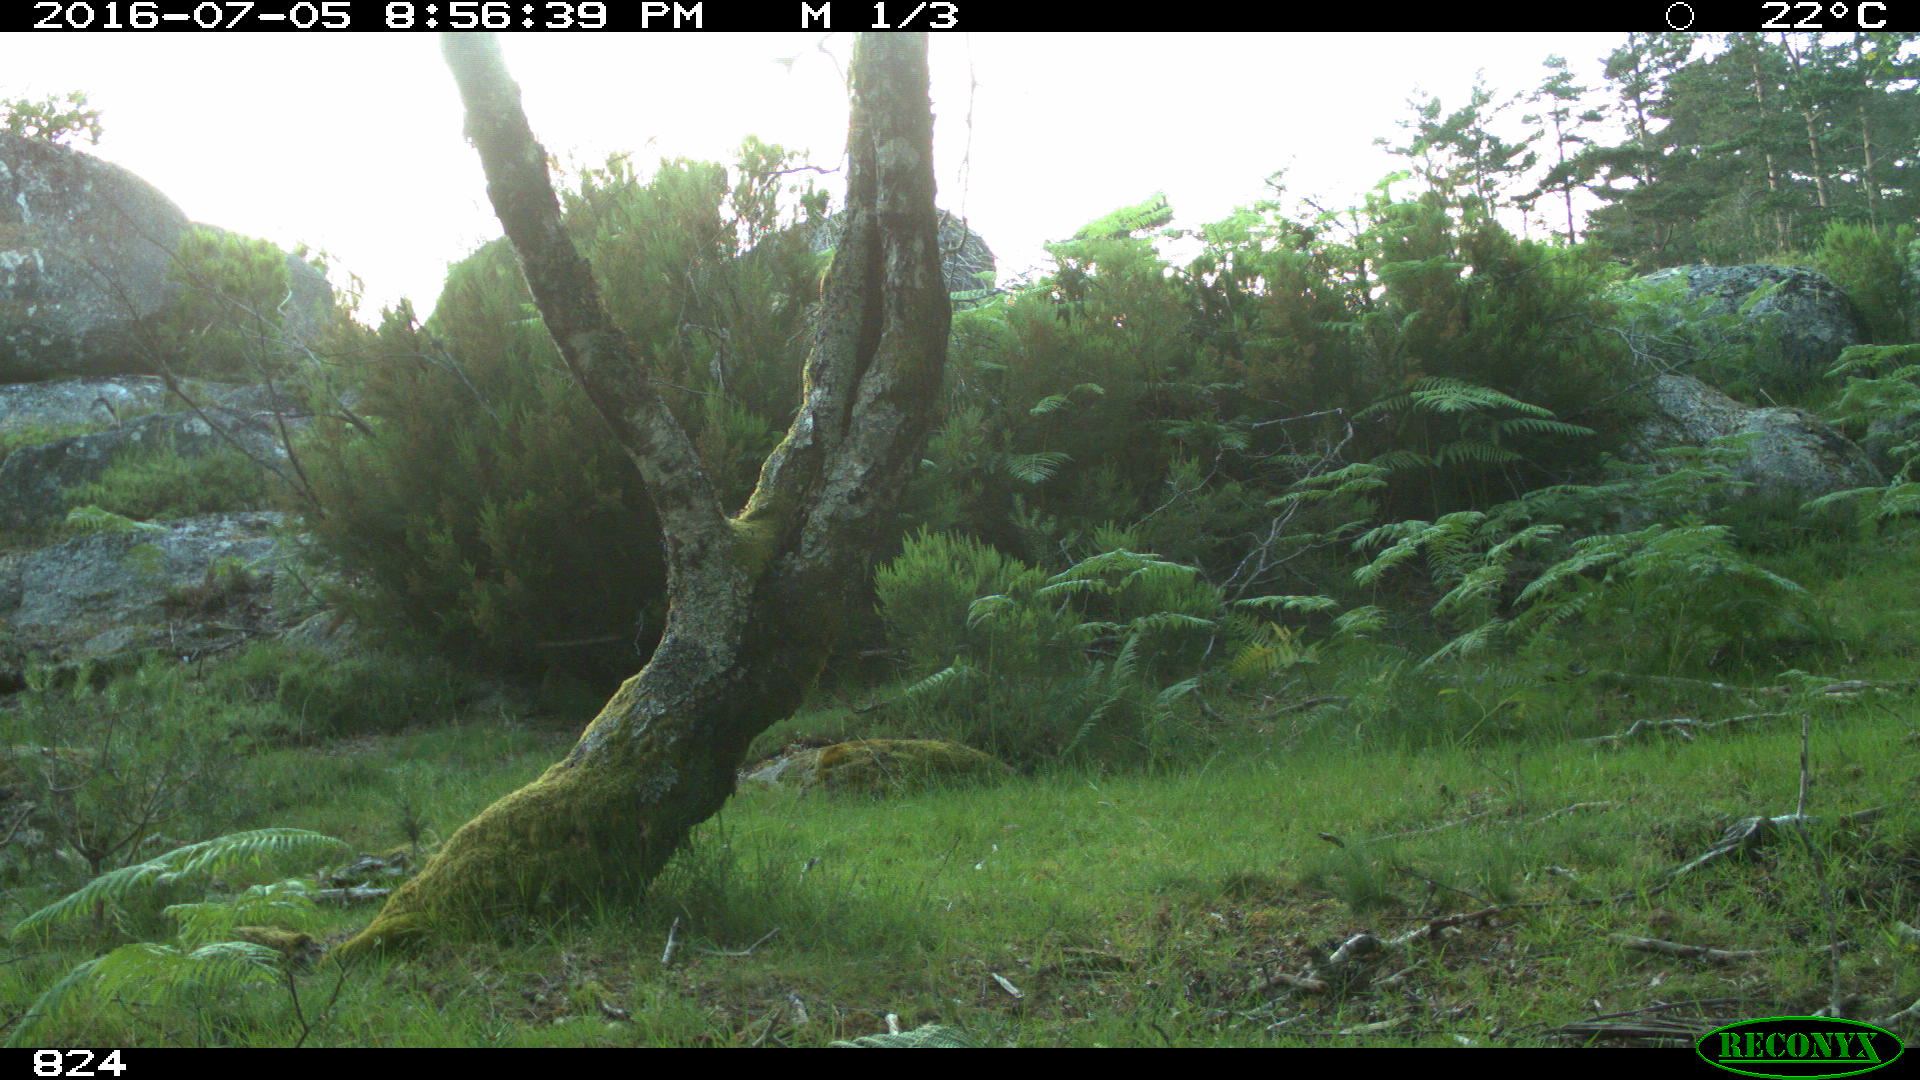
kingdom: Animalia
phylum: Chordata
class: Mammalia
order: Artiodactyla
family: Bovidae
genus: Bos
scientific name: Bos taurus
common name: Domesticated cattle
